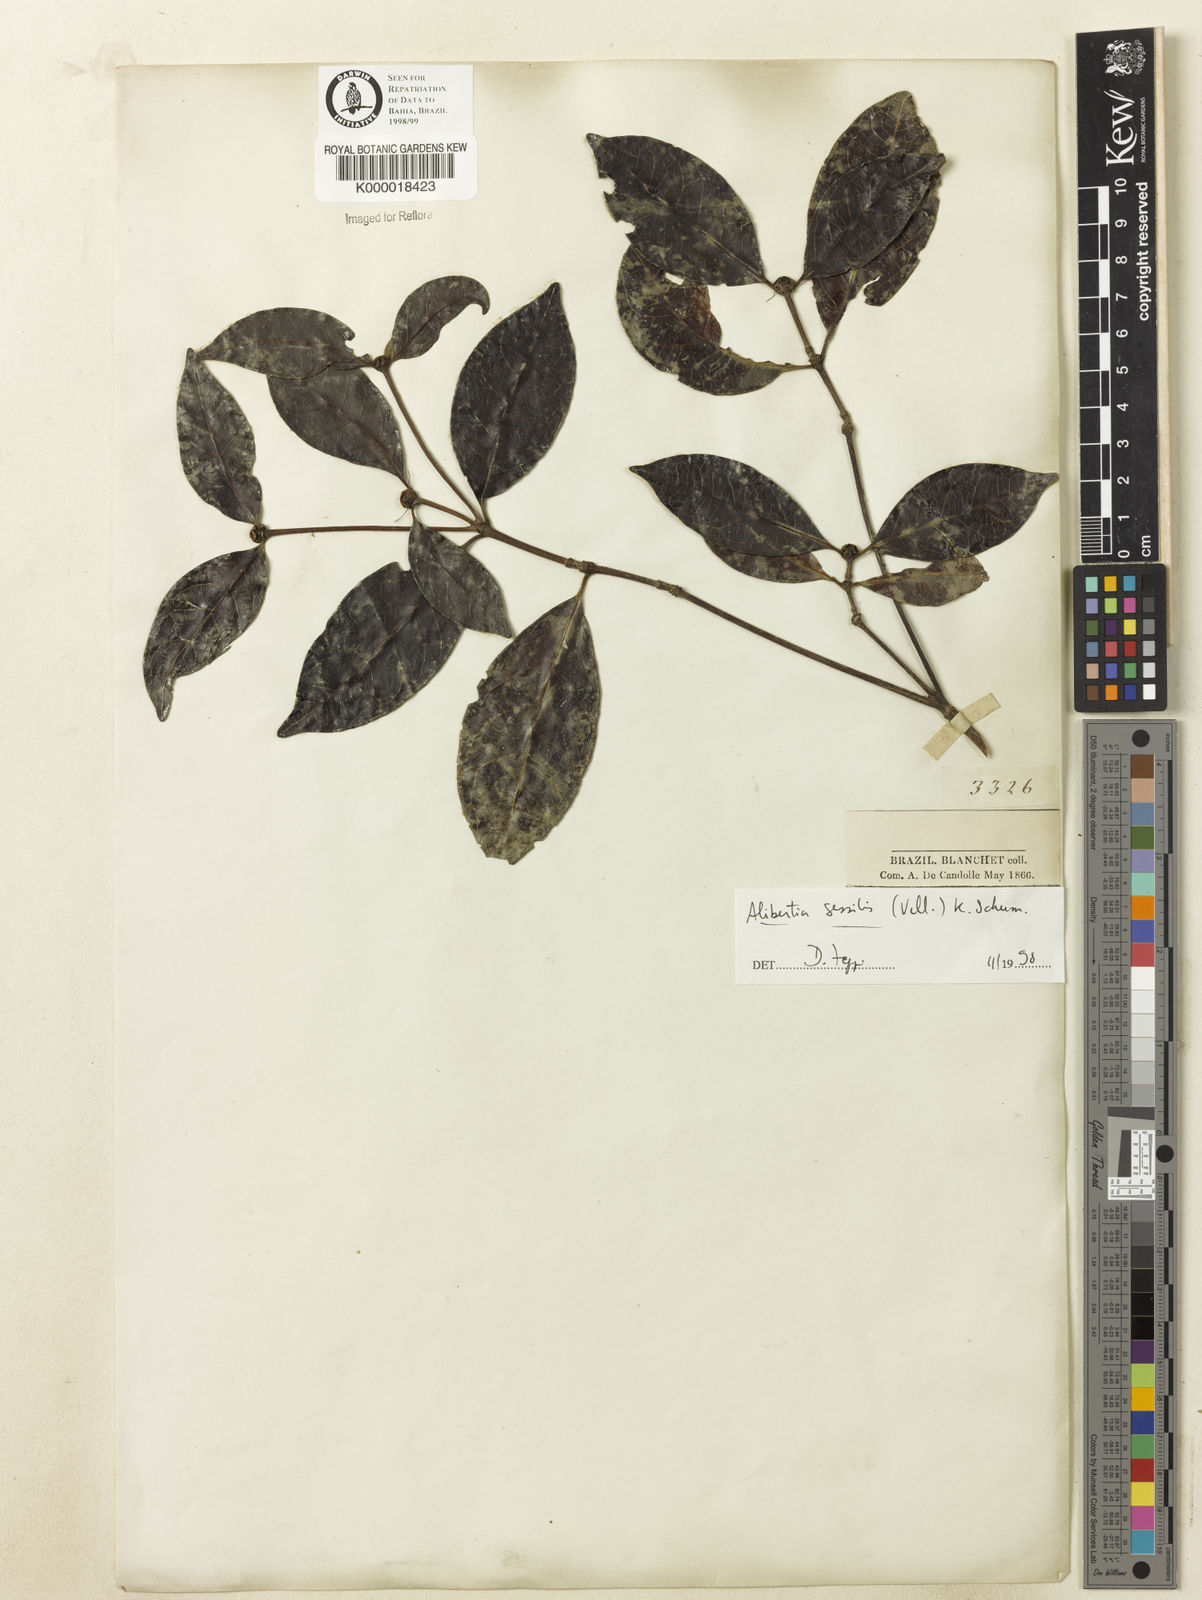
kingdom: Plantae
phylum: Tracheophyta
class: Magnoliopsida
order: Gentianales
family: Rubiaceae
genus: Cordiera
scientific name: Cordiera sessilis
